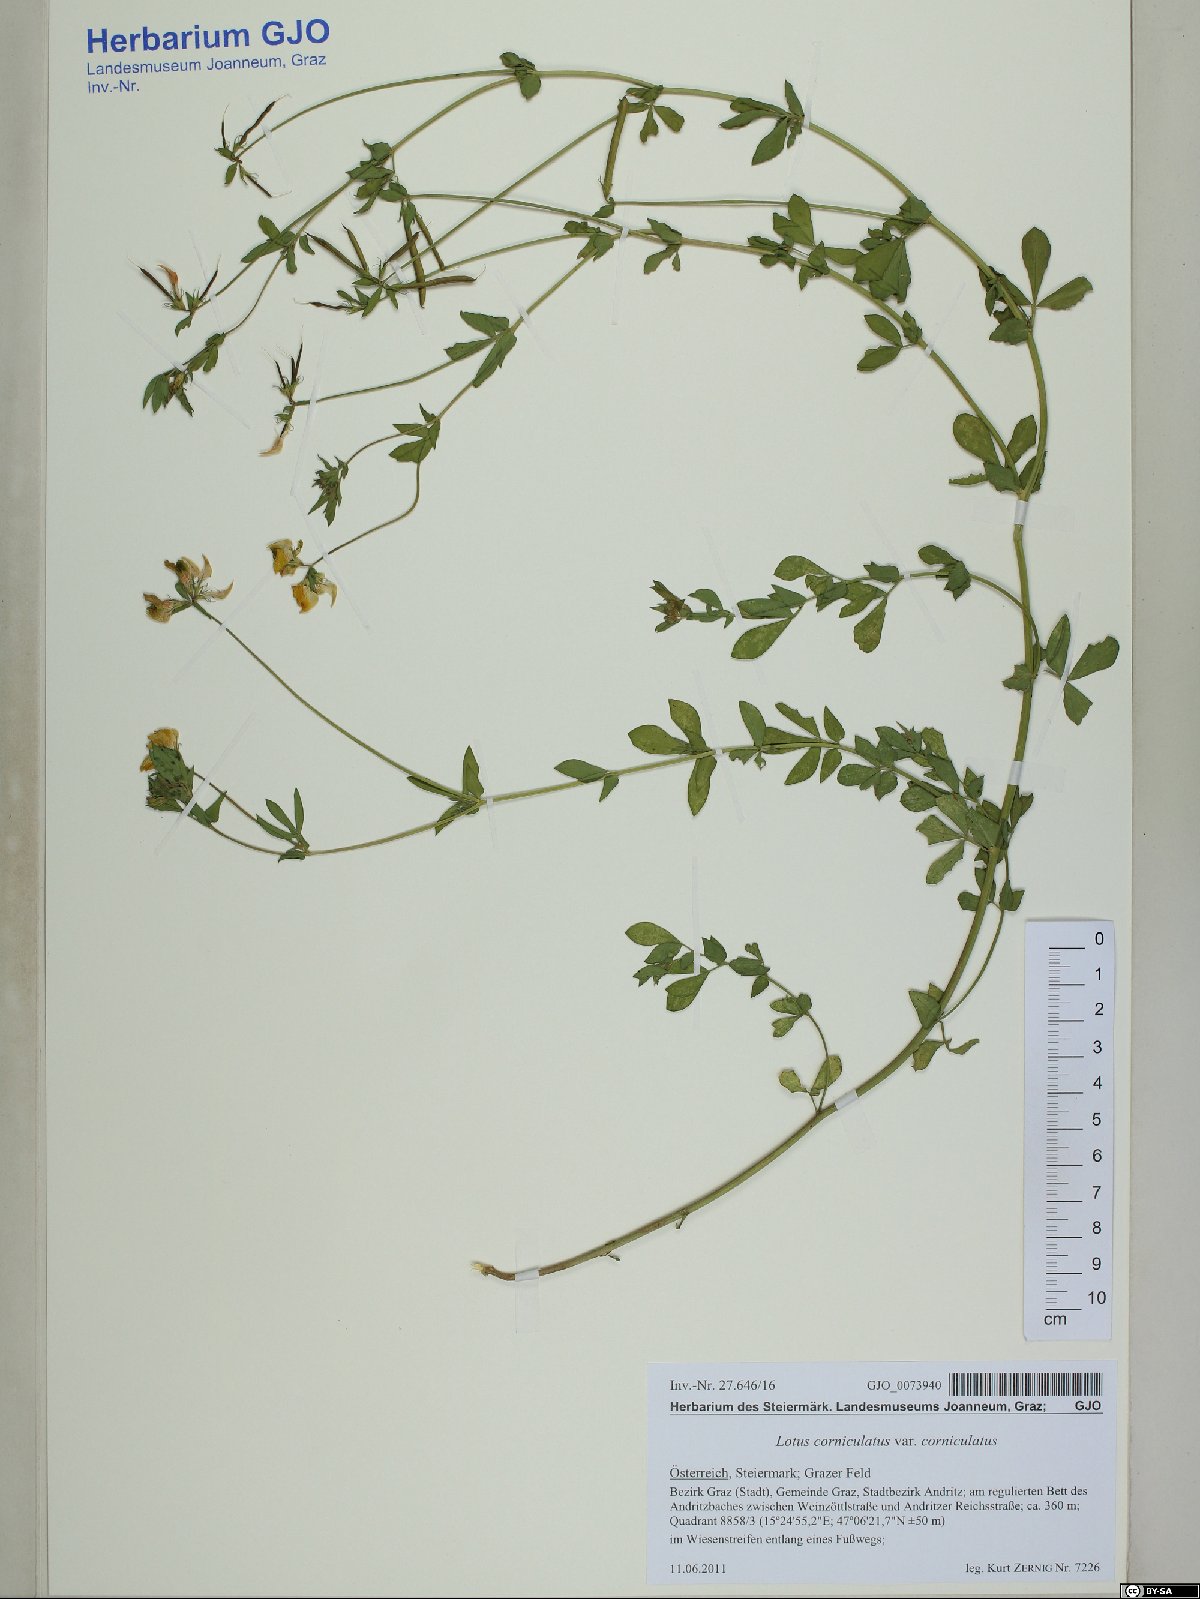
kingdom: Plantae
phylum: Tracheophyta
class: Magnoliopsida
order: Fabales
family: Fabaceae
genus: Lotus
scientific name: Lotus corniculatus
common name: Common bird's-foot-trefoil
